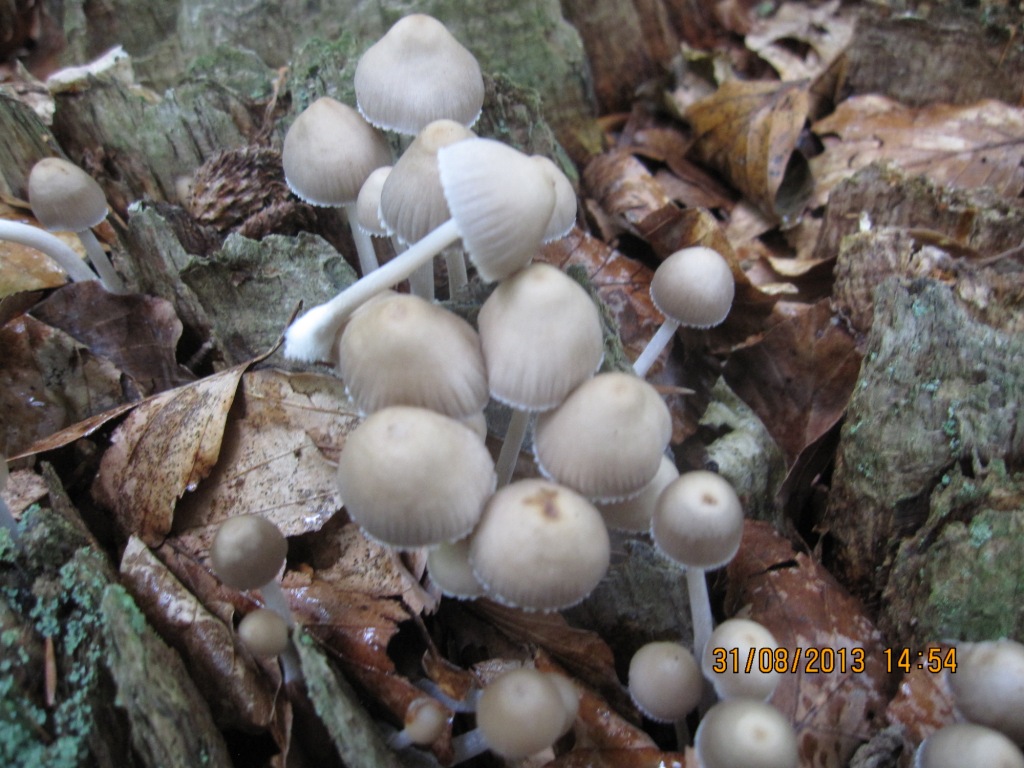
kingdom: Fungi
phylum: Basidiomycota
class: Agaricomycetes
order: Agaricales
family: Mycenaceae
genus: Mycena
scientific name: Mycena inclinata
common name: nikkende huesvamp
